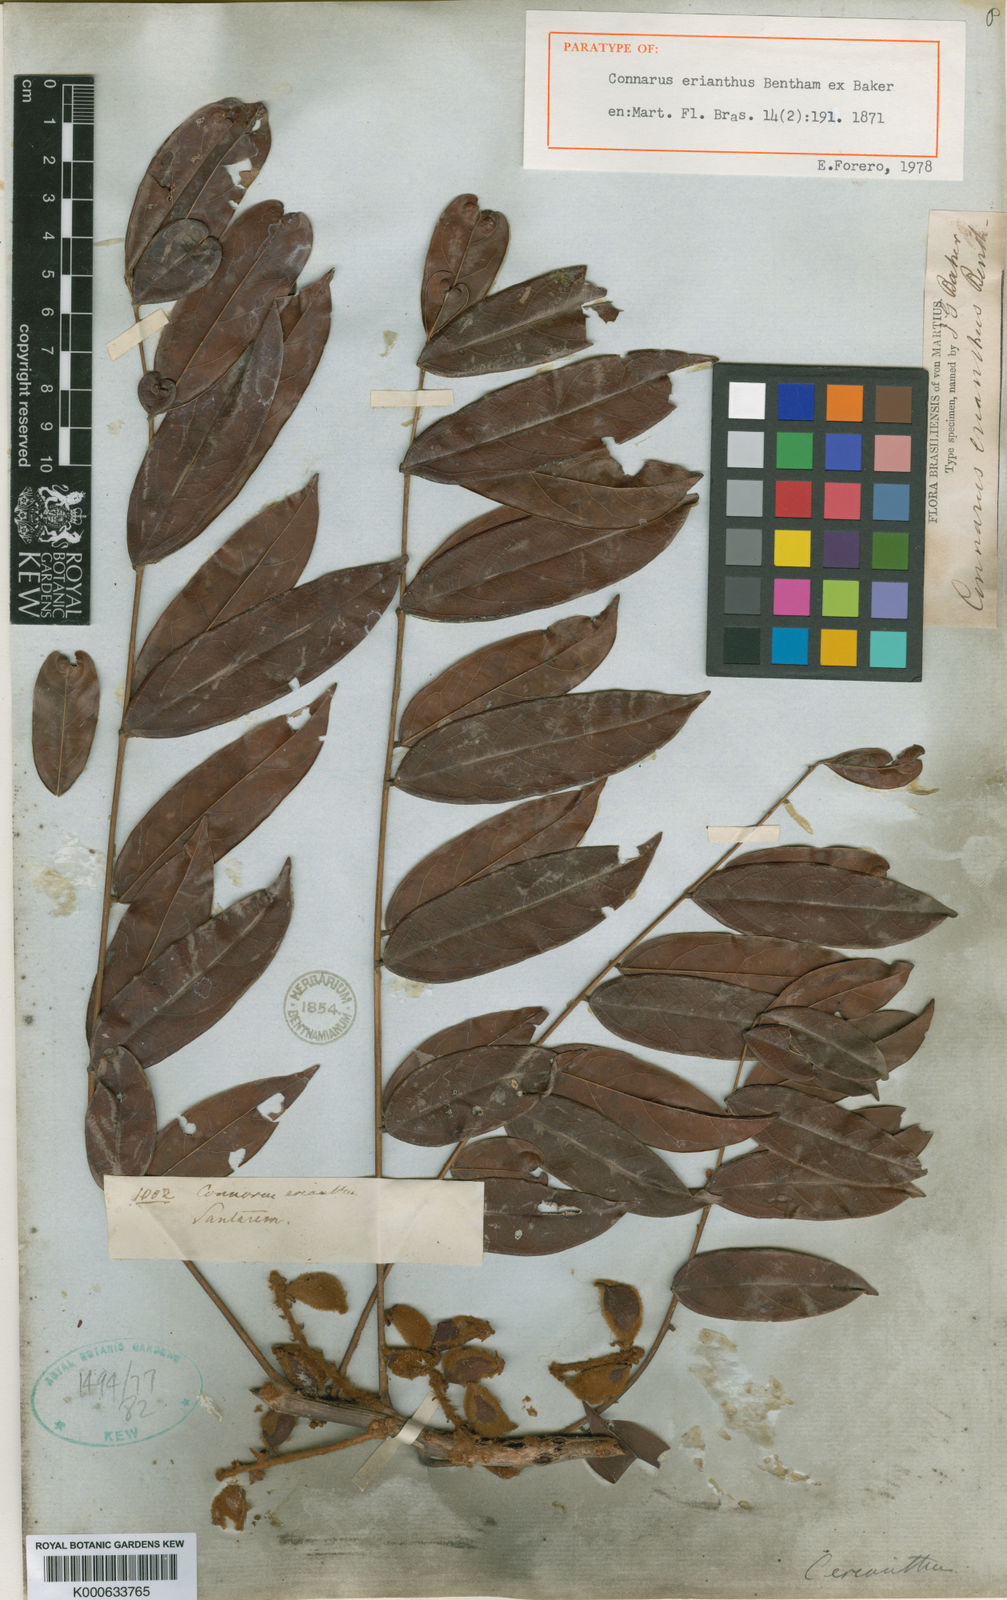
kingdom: Plantae
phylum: Tracheophyta
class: Magnoliopsida
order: Oxalidales
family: Connaraceae
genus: Connarus
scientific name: Connarus erianthus
